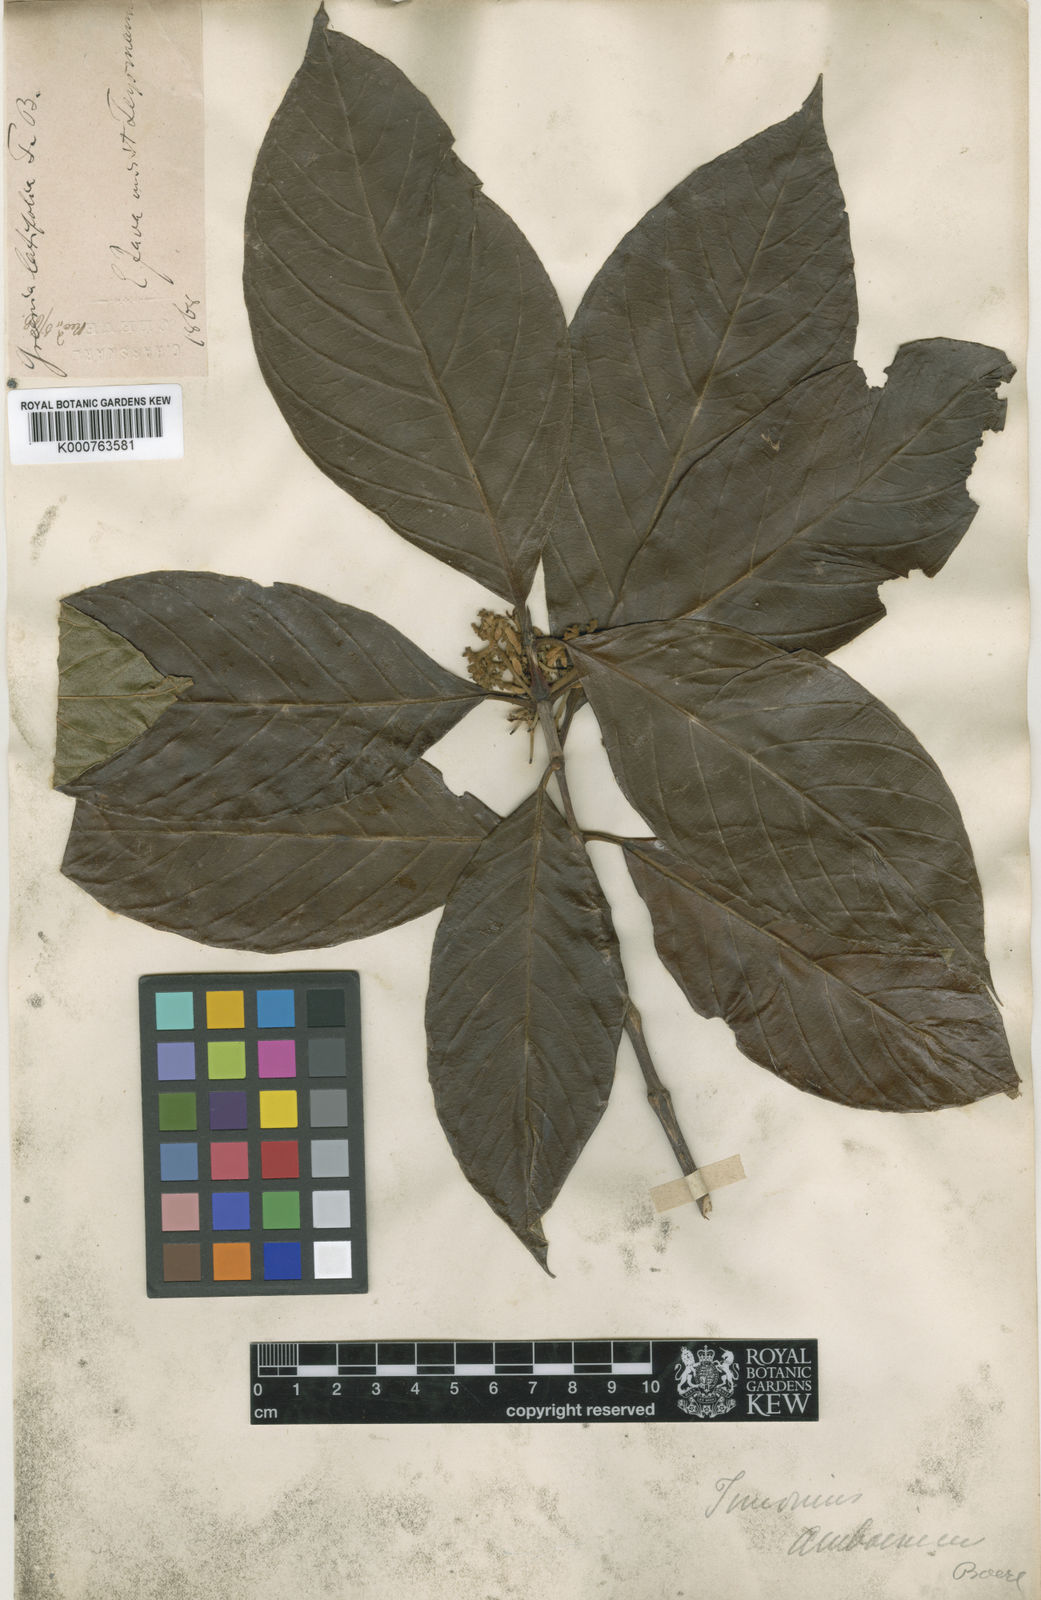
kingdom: Plantae
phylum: Tracheophyta
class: Magnoliopsida
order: Gentianales
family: Rubiaceae
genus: Timonius
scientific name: Timonius amboinicus
